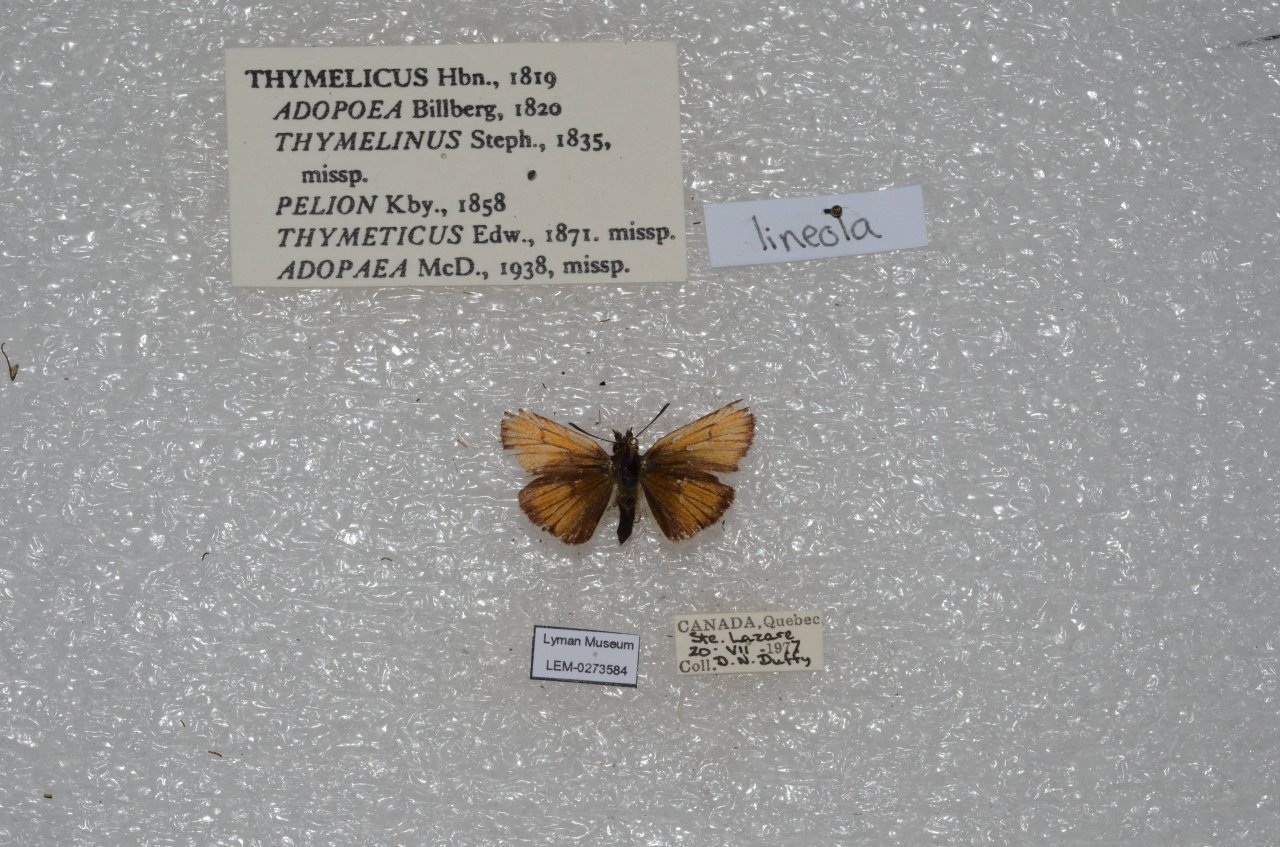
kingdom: Animalia
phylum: Arthropoda
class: Insecta
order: Lepidoptera
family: Hesperiidae
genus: Thymelicus
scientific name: Thymelicus lineola
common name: European Skipper
